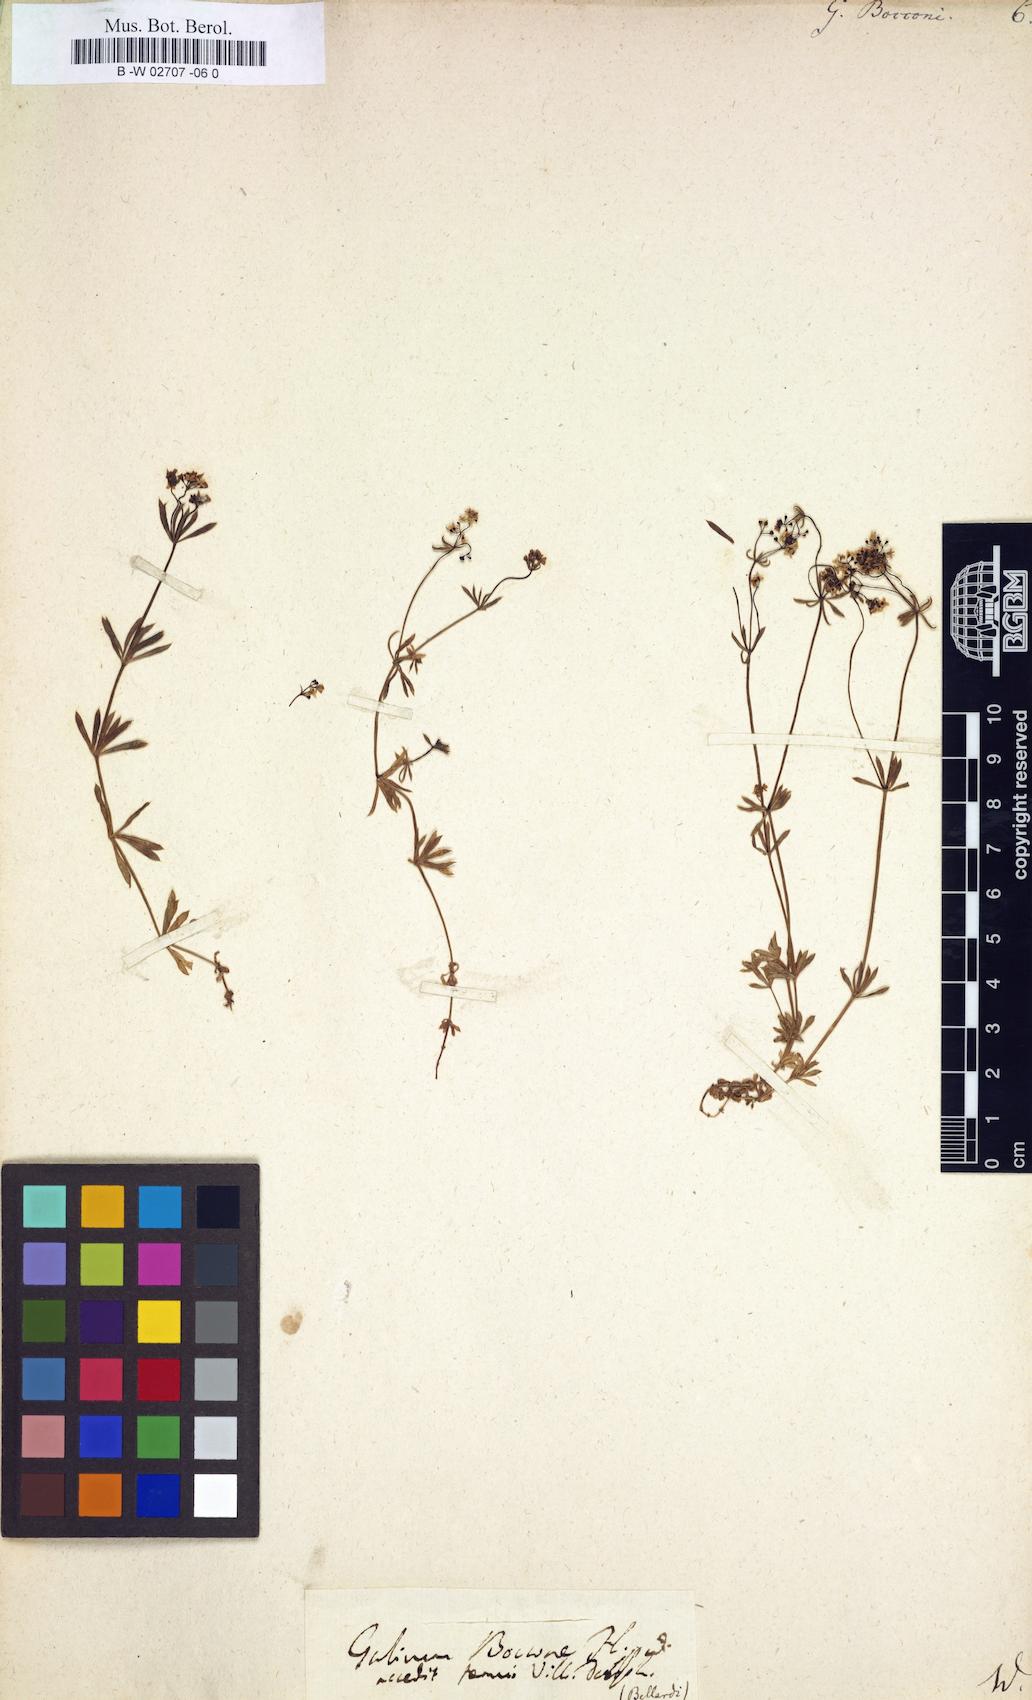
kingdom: Plantae
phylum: Tracheophyta
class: Magnoliopsida
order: Gentianales
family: Rubiaceae
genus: Galium
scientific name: Galium
